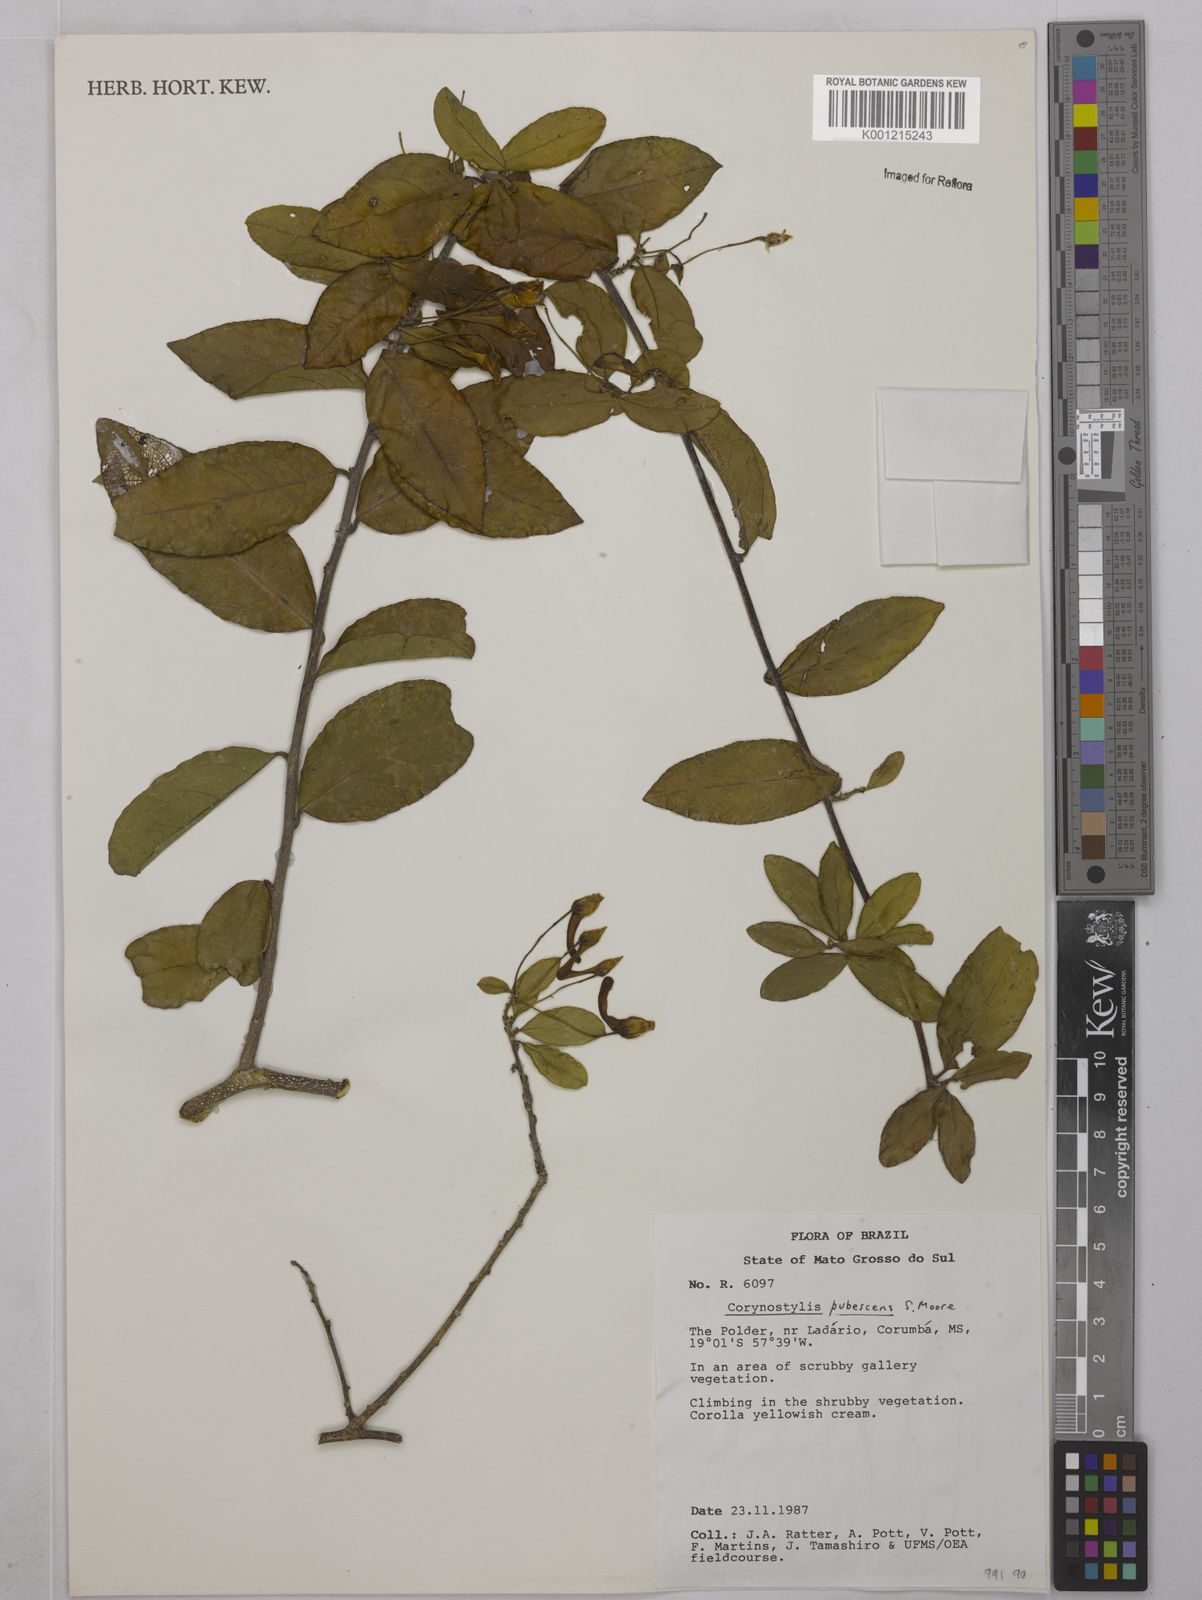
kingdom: Plantae
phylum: Tracheophyta
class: Magnoliopsida
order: Malpighiales
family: Violaceae
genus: Calyptrion
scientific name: Calyptrion pubescens
